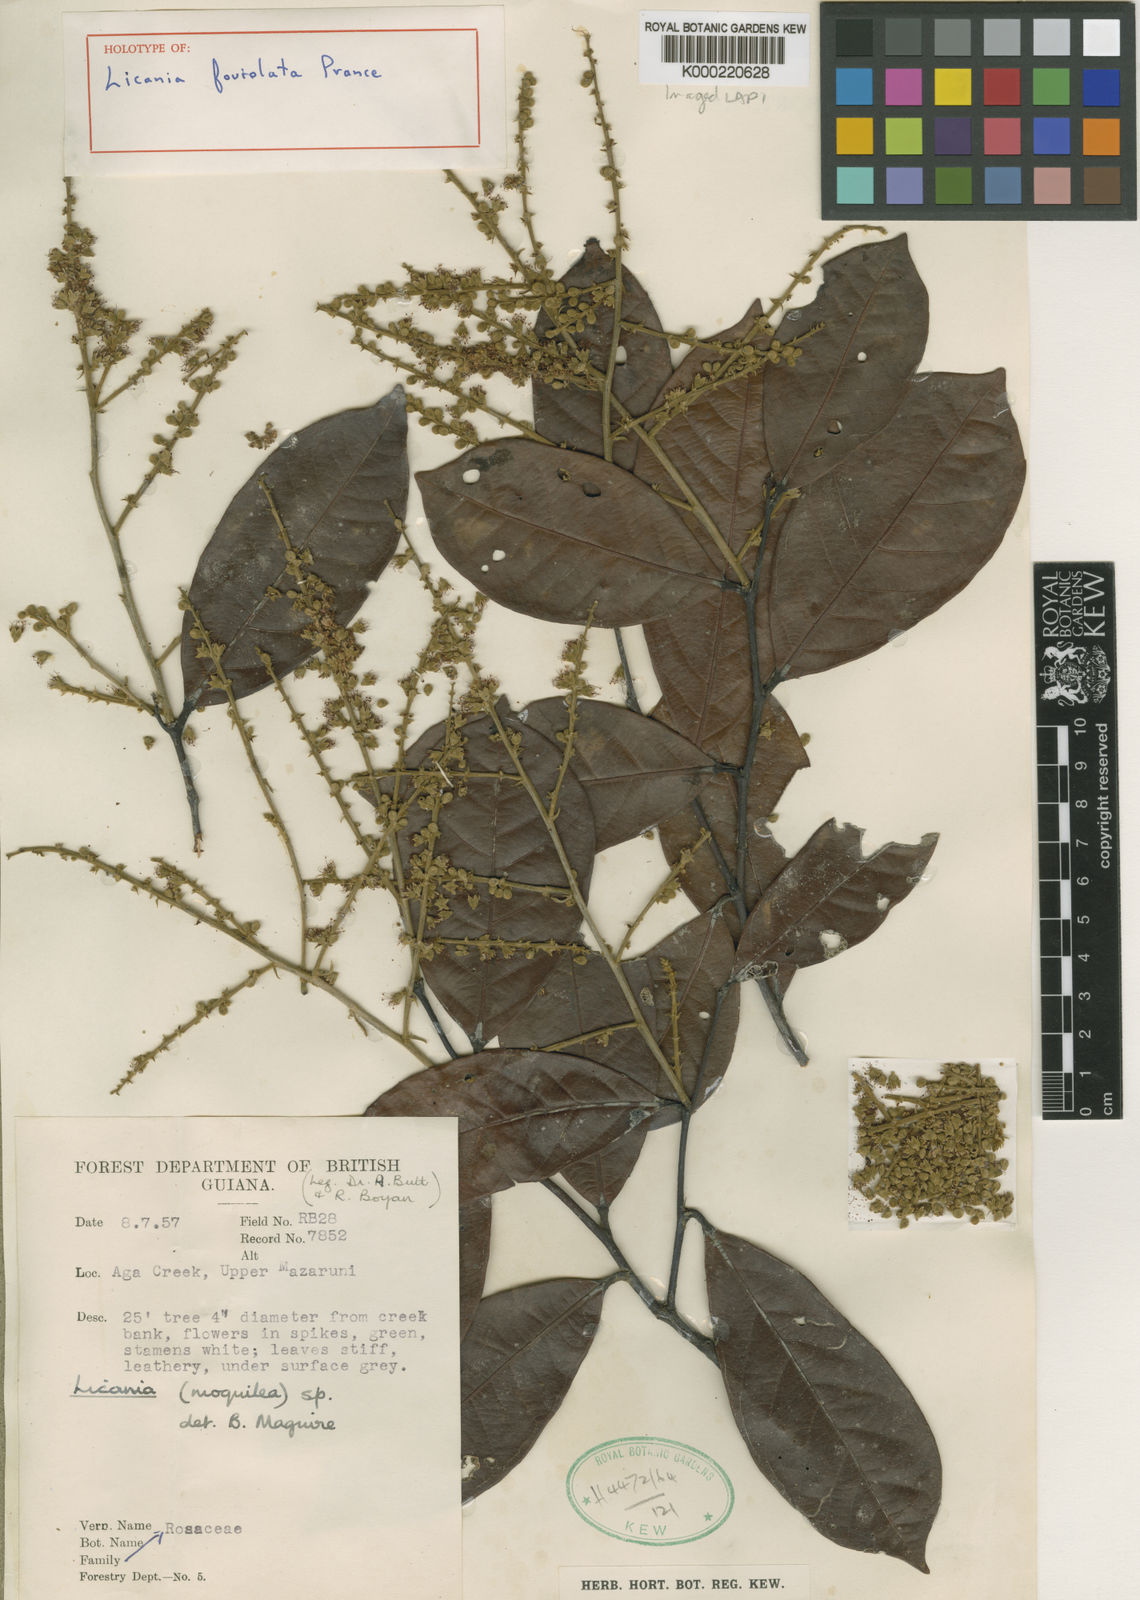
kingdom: Plantae
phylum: Tracheophyta
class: Magnoliopsida
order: Malpighiales
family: Chrysobalanaceae
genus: Leptobalanus
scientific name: Leptobalanus foveolatus
